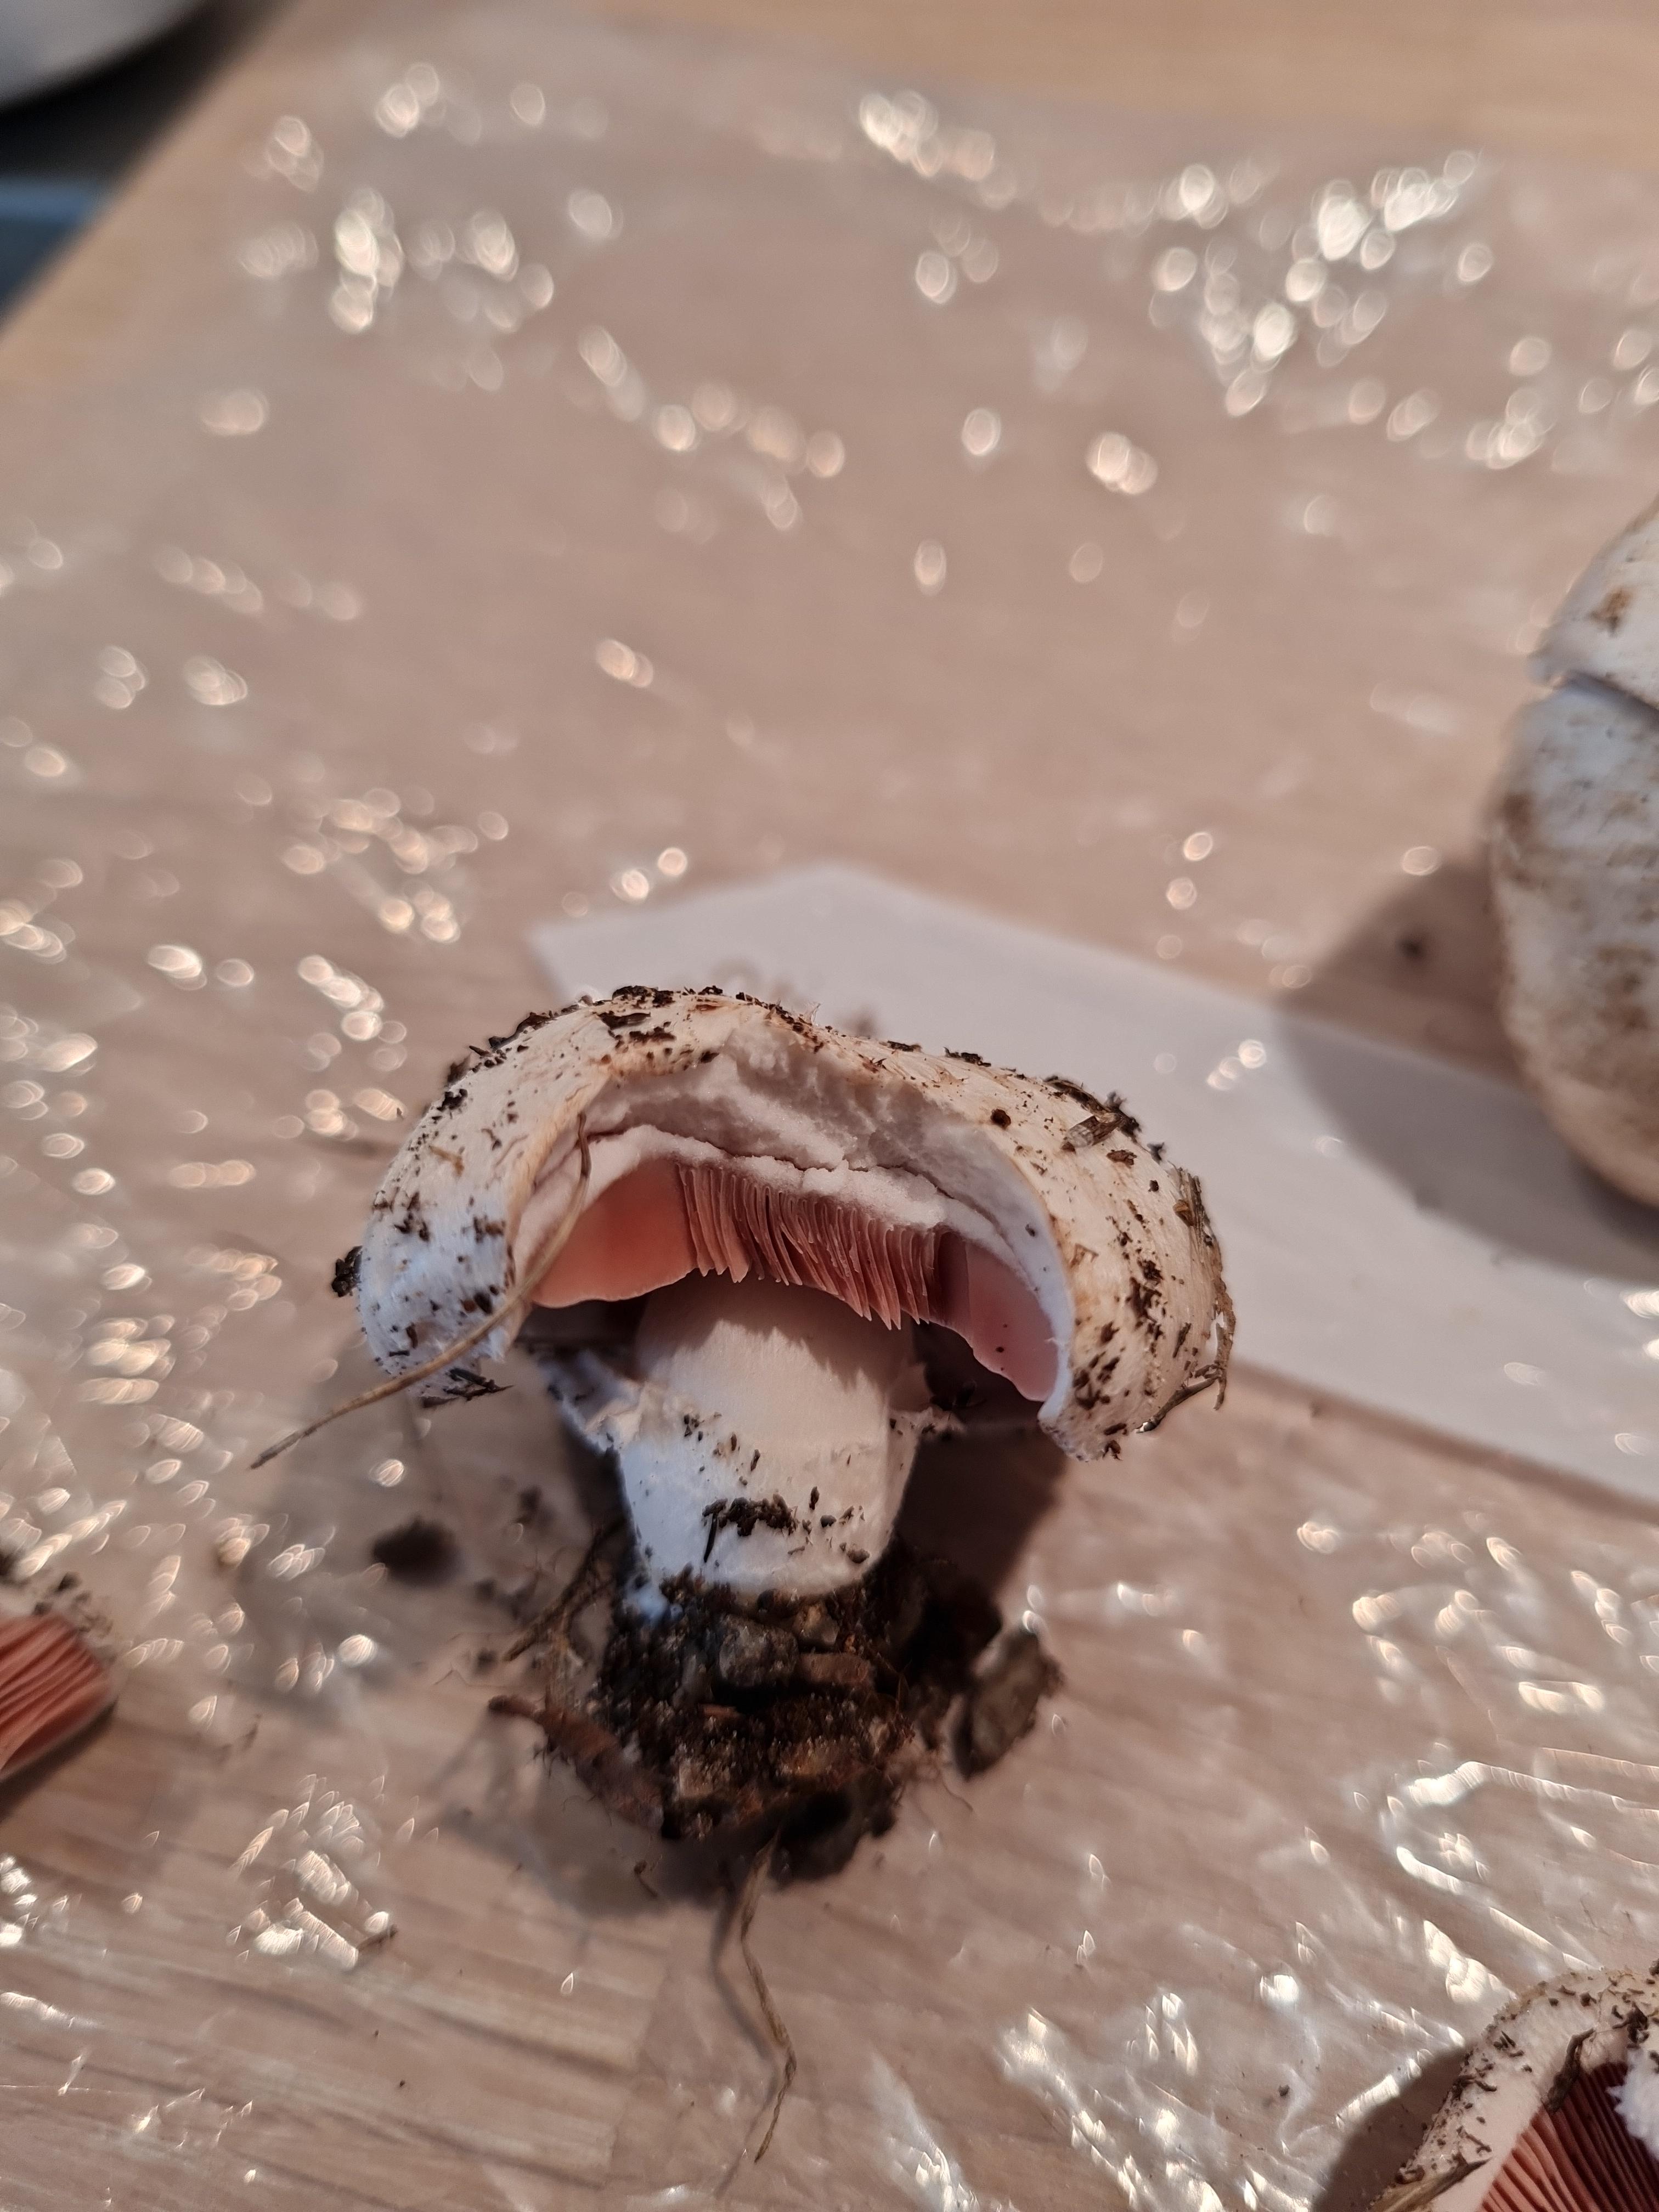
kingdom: Fungi
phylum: Basidiomycota
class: Agaricomycetes
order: Agaricales
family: Agaricaceae
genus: Agaricus
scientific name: Agaricus
